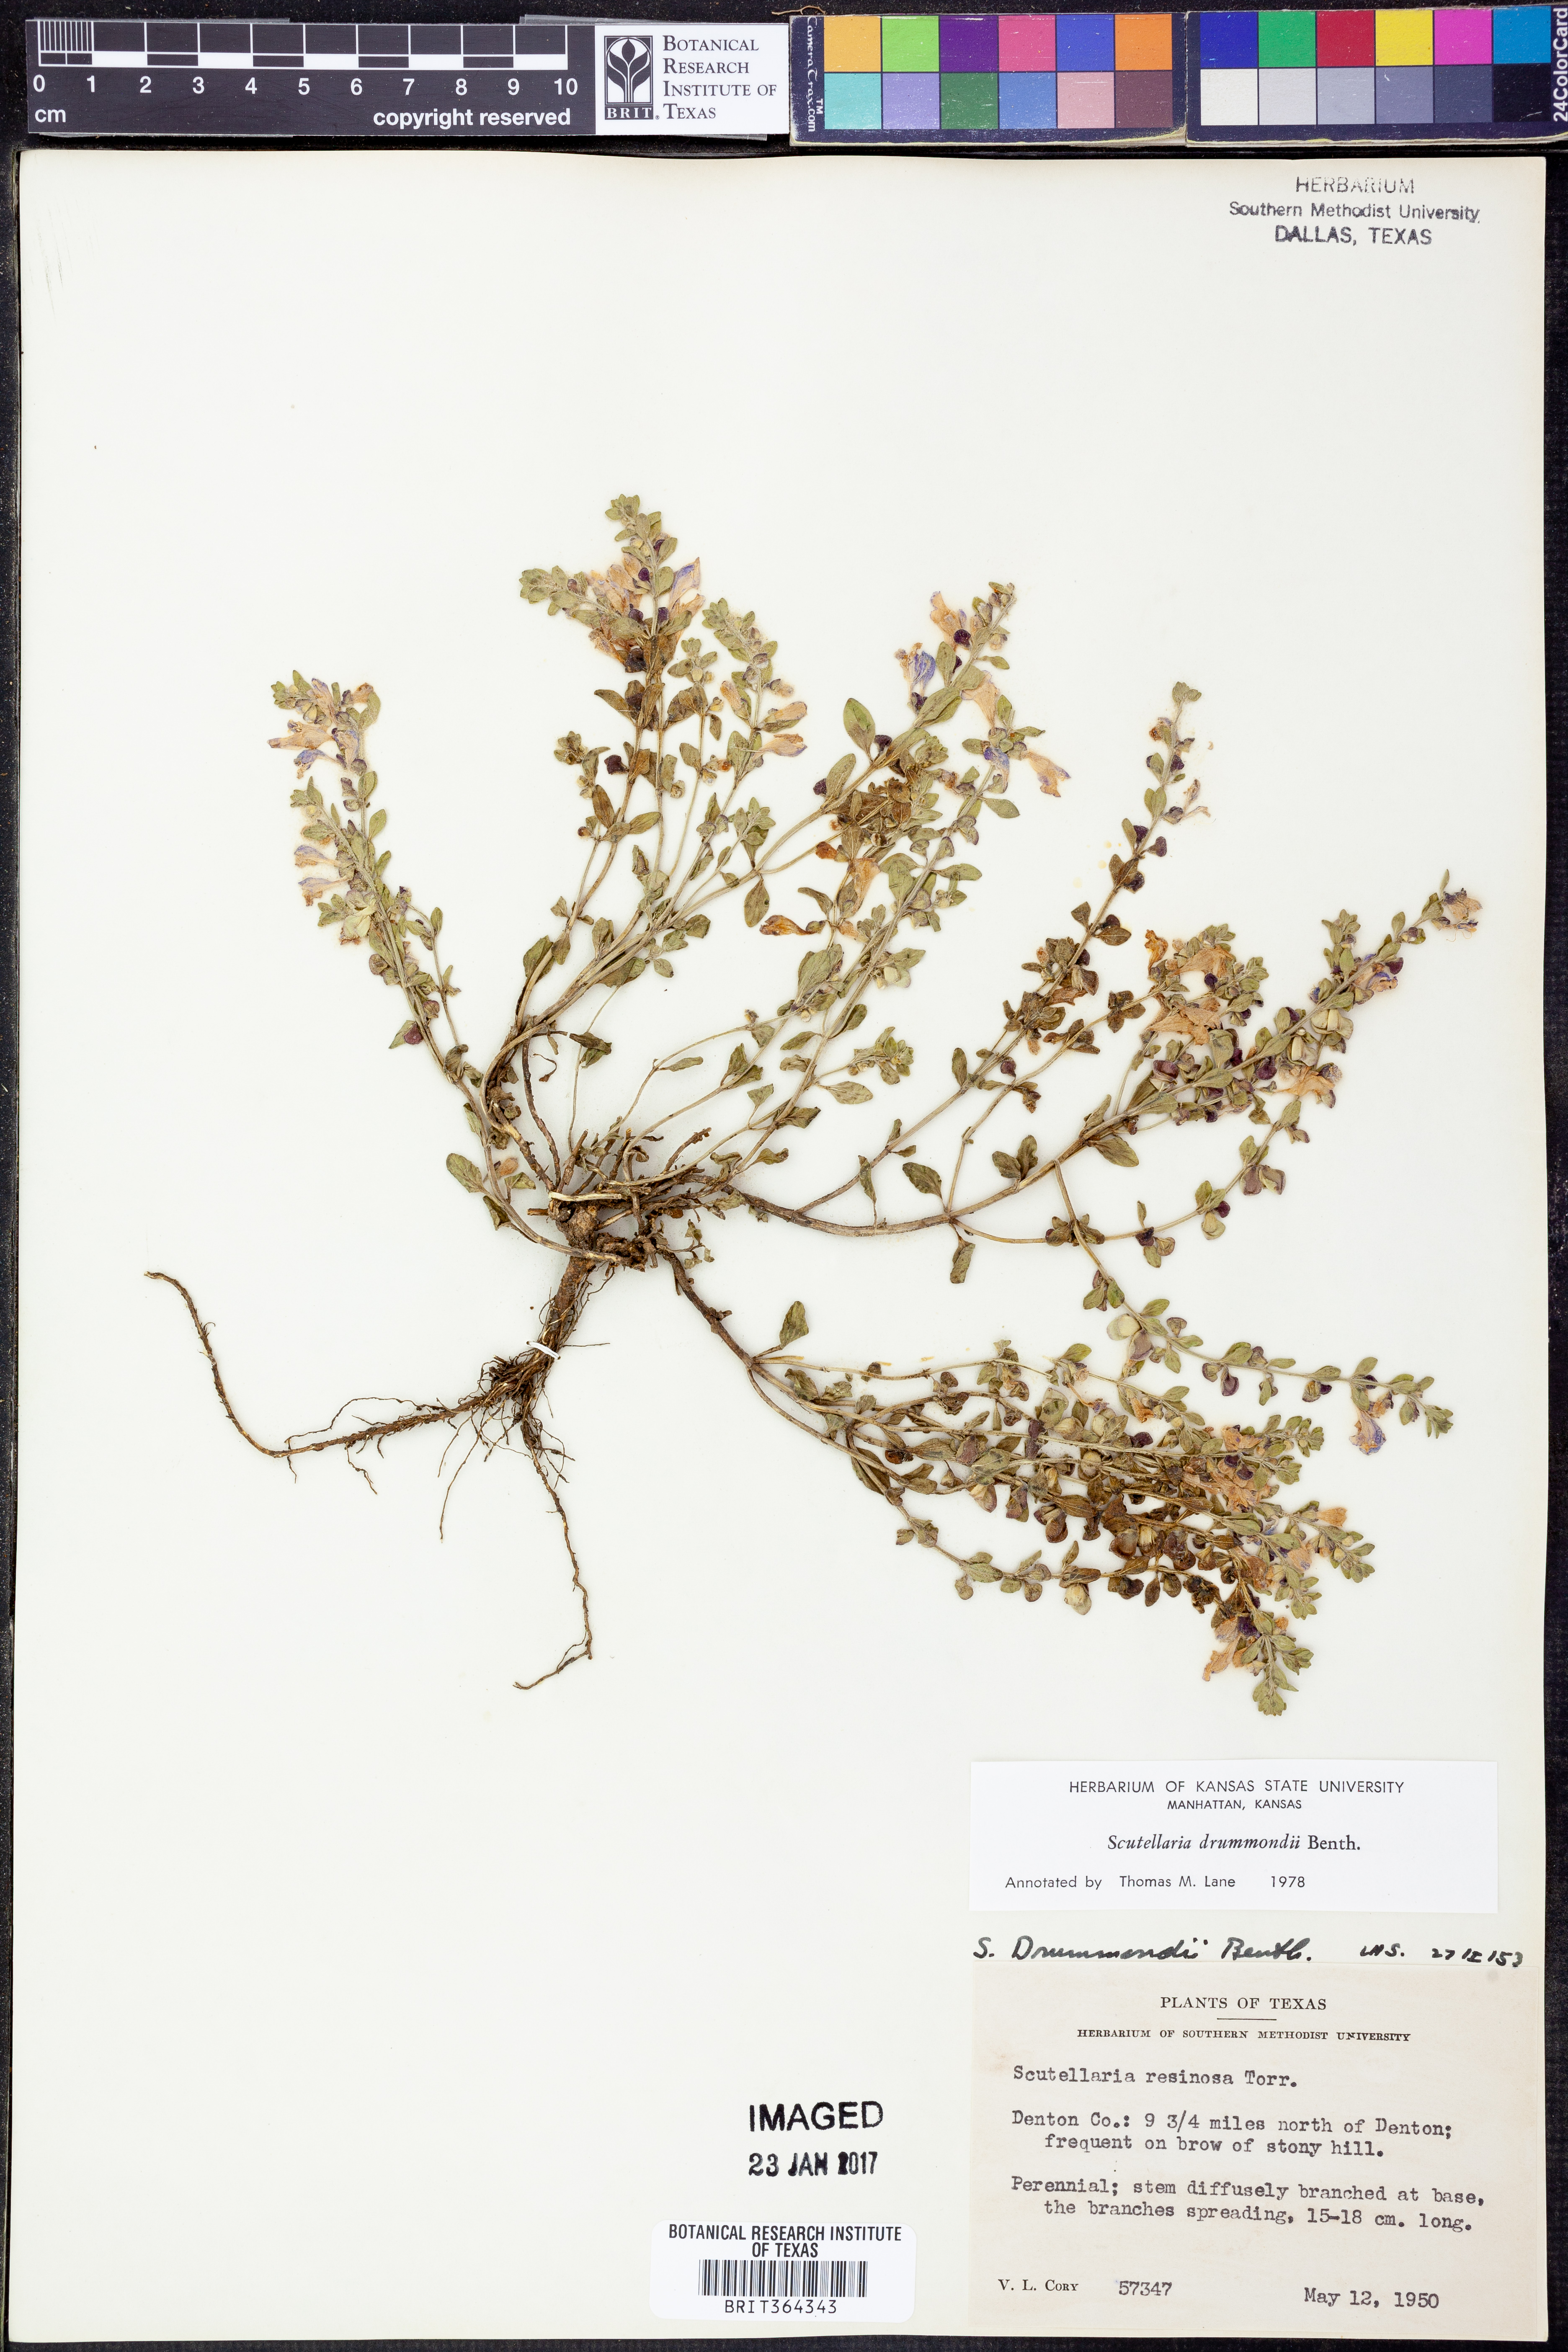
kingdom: Plantae
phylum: Tracheophyta
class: Magnoliopsida
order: Lamiales
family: Lamiaceae
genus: Scutellaria
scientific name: Scutellaria drummondii
